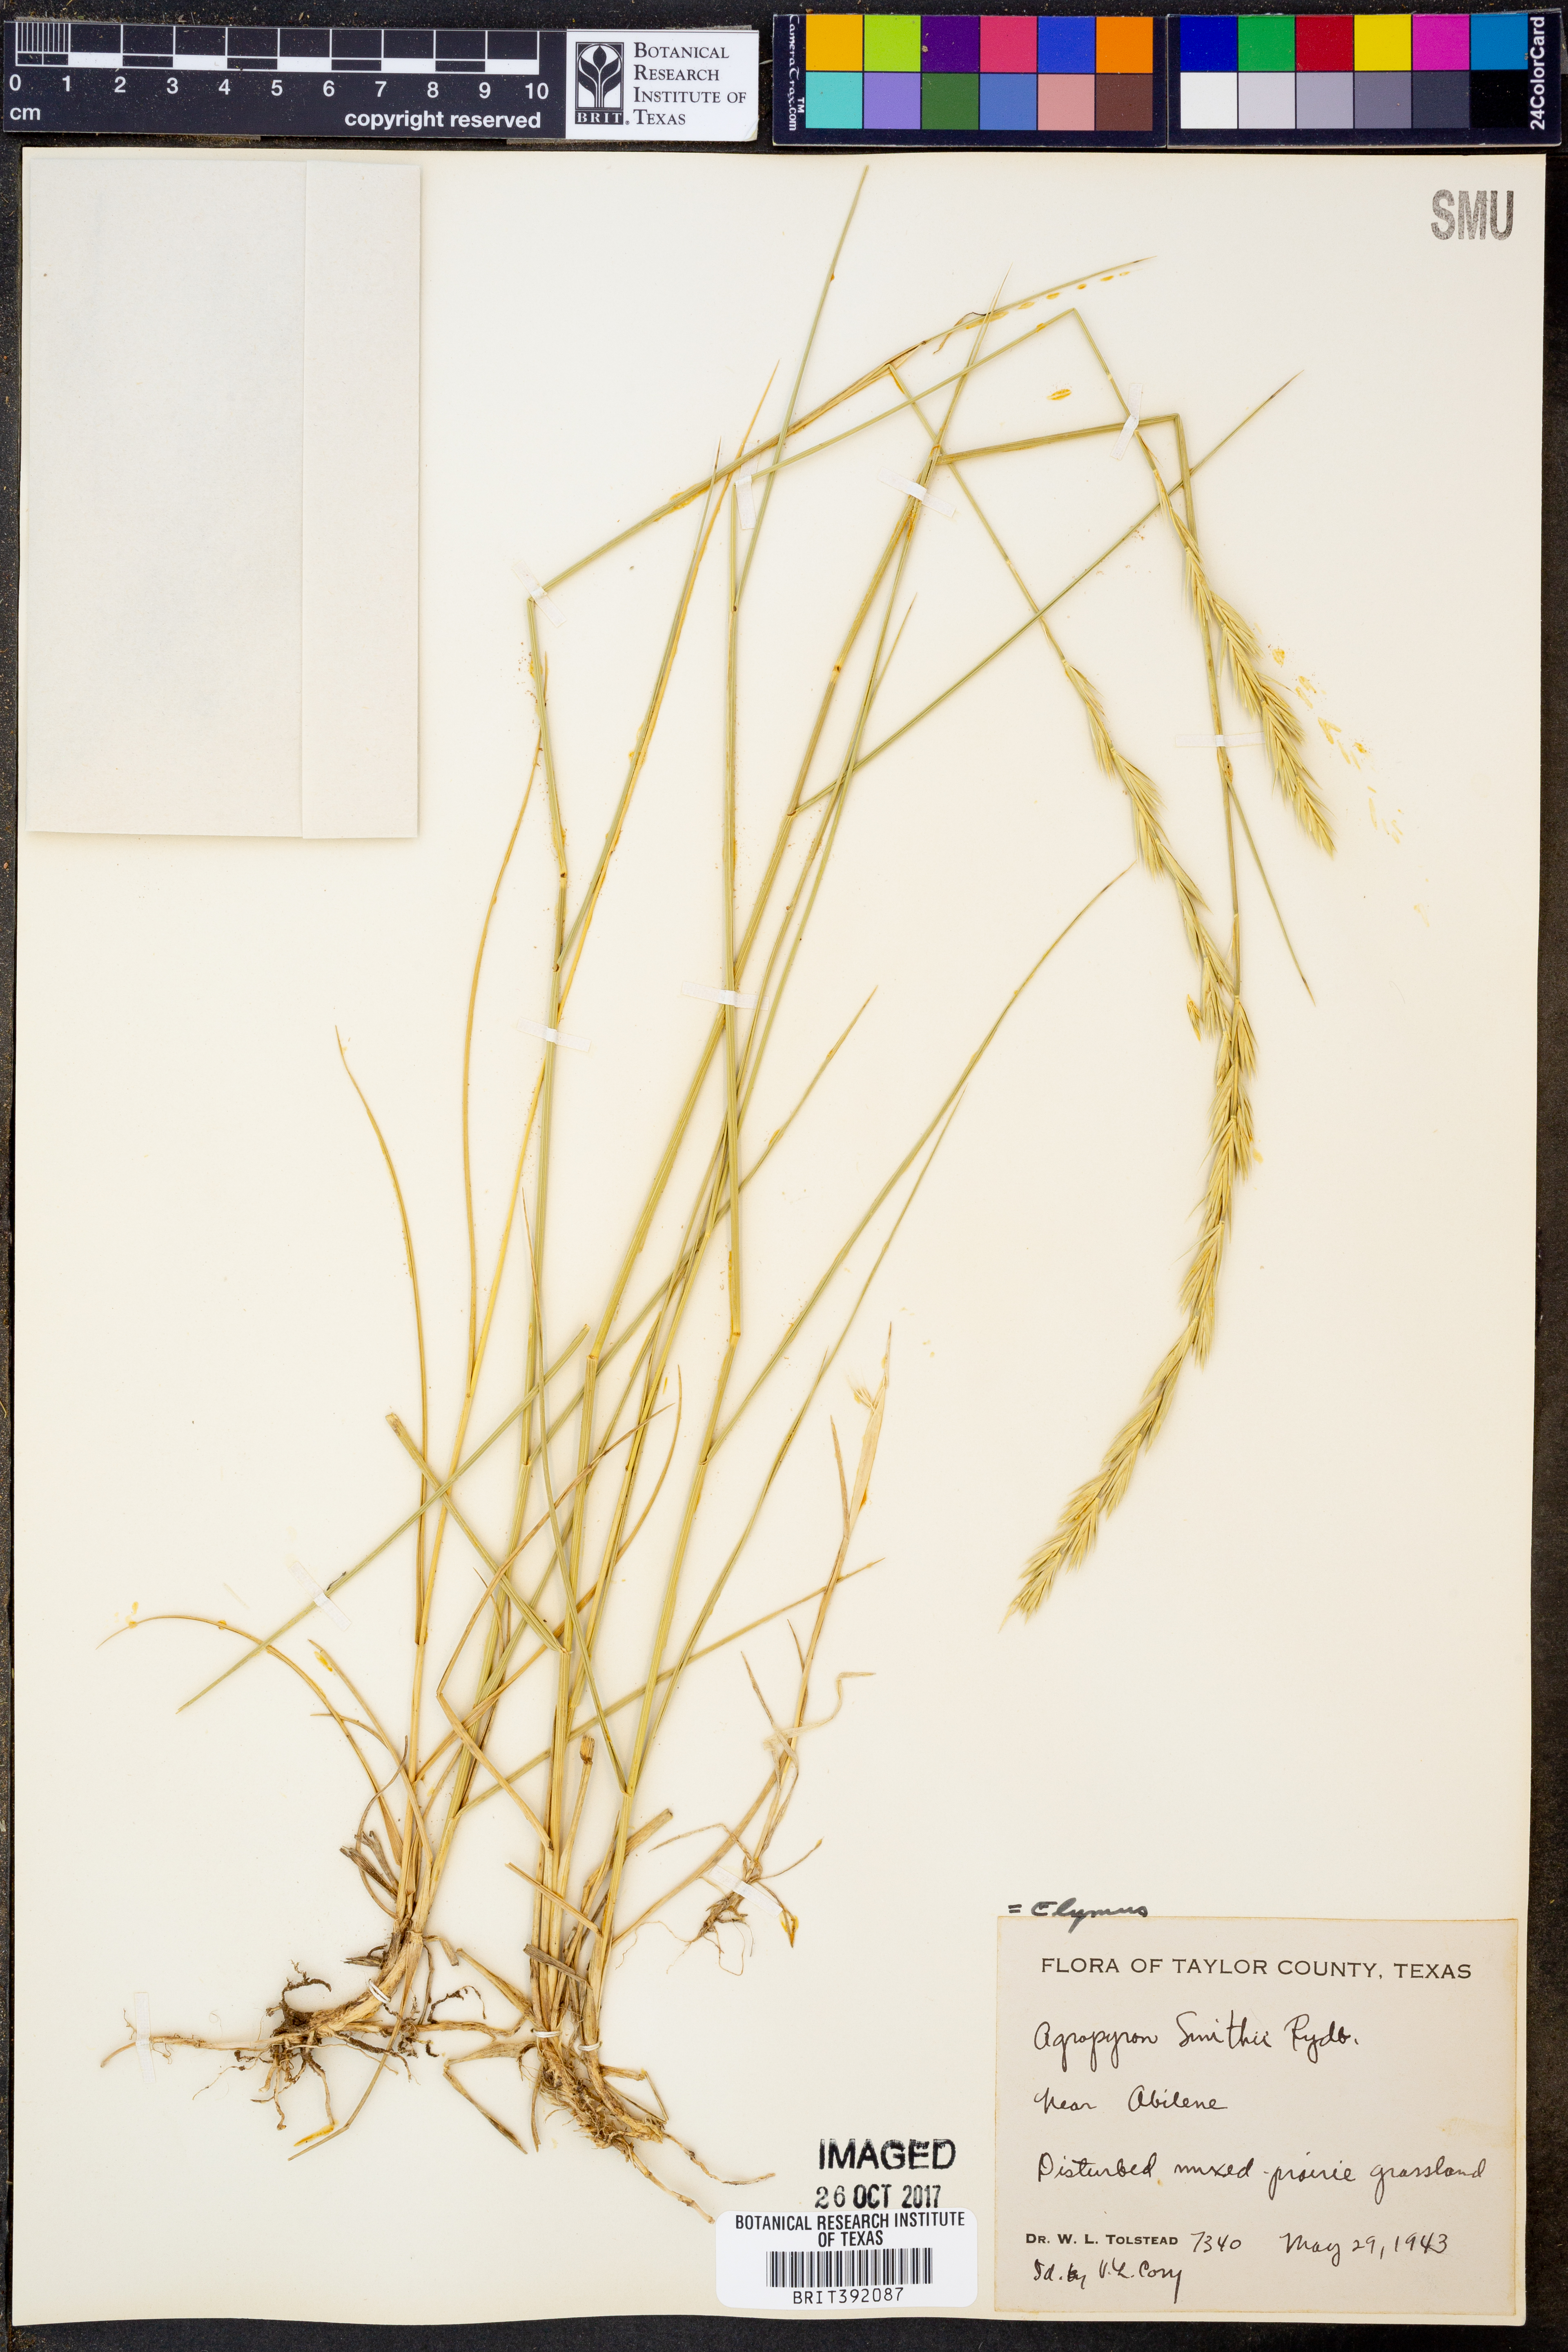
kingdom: Plantae
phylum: Tracheophyta
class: Liliopsida
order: Poales
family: Poaceae
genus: Elymus
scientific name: Elymus smithii
